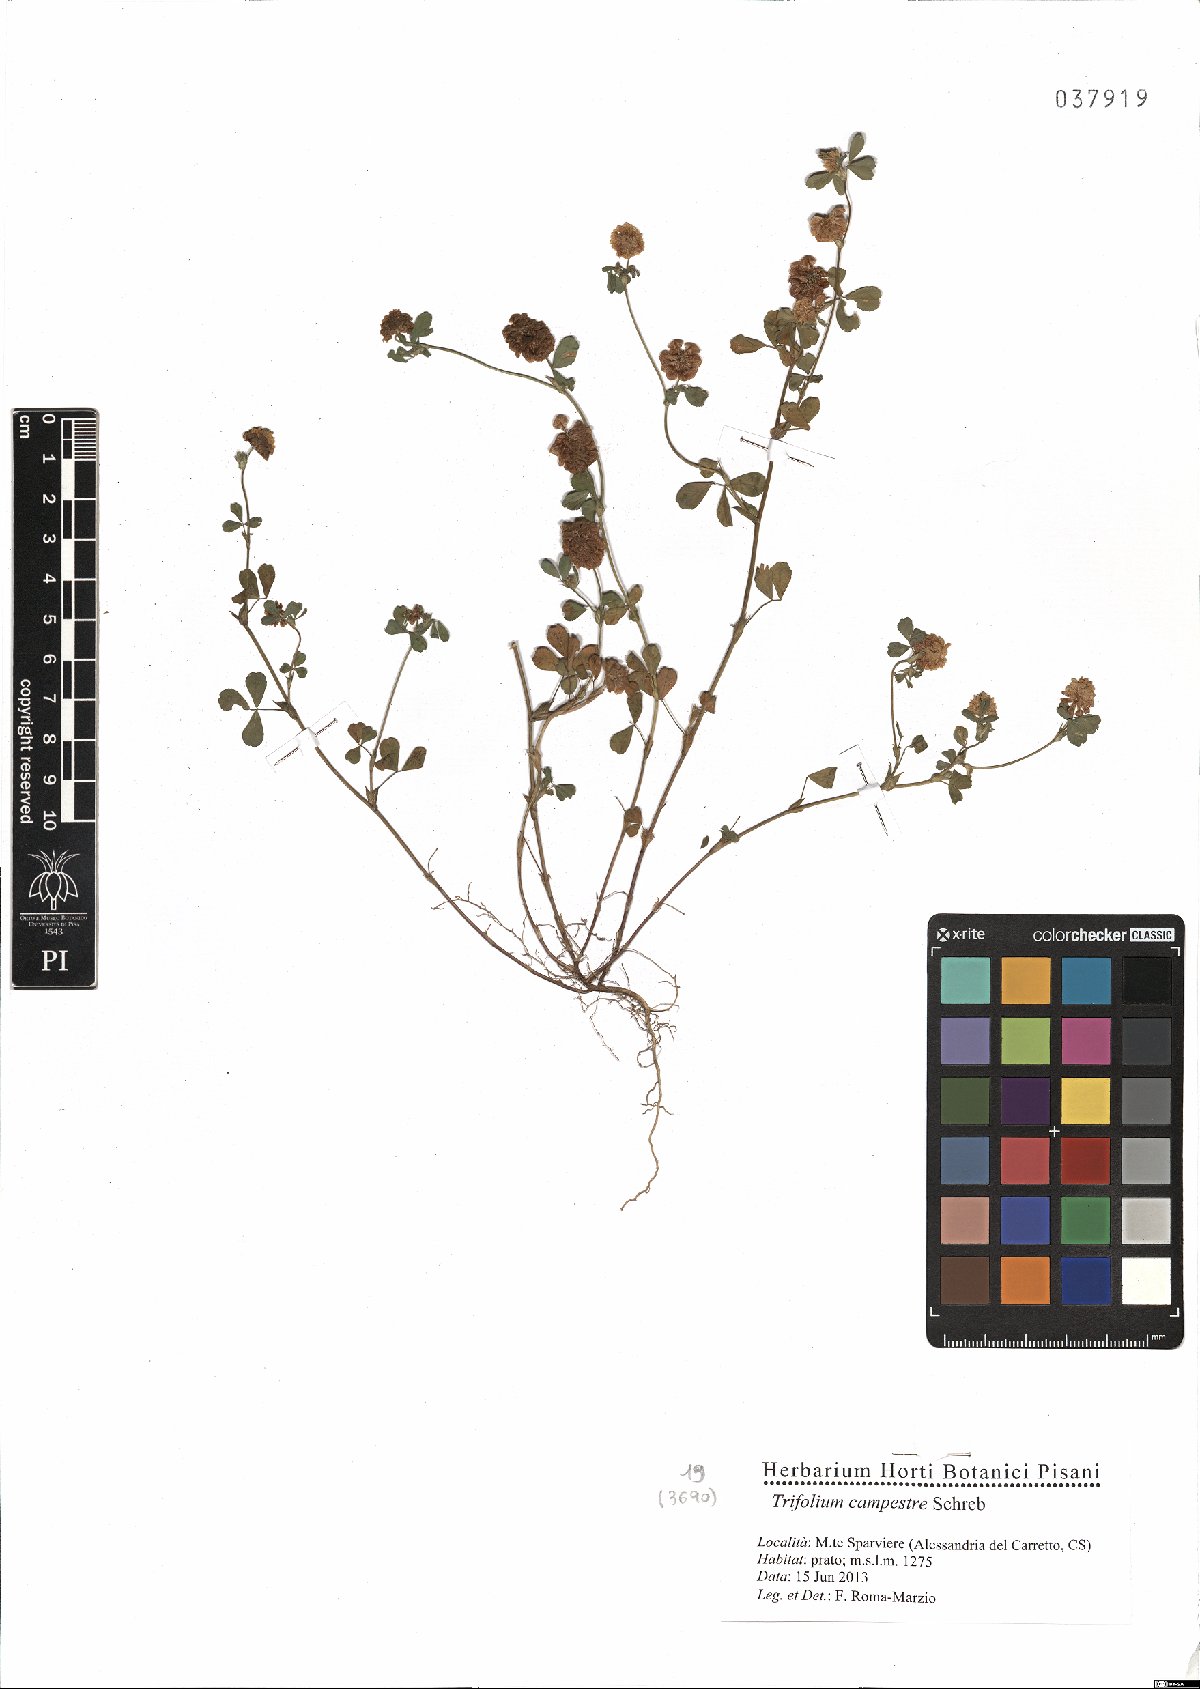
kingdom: Plantae
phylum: Tracheophyta
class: Magnoliopsida
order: Fabales
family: Fabaceae
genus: Trifolium
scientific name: Trifolium campestre
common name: Field clover
